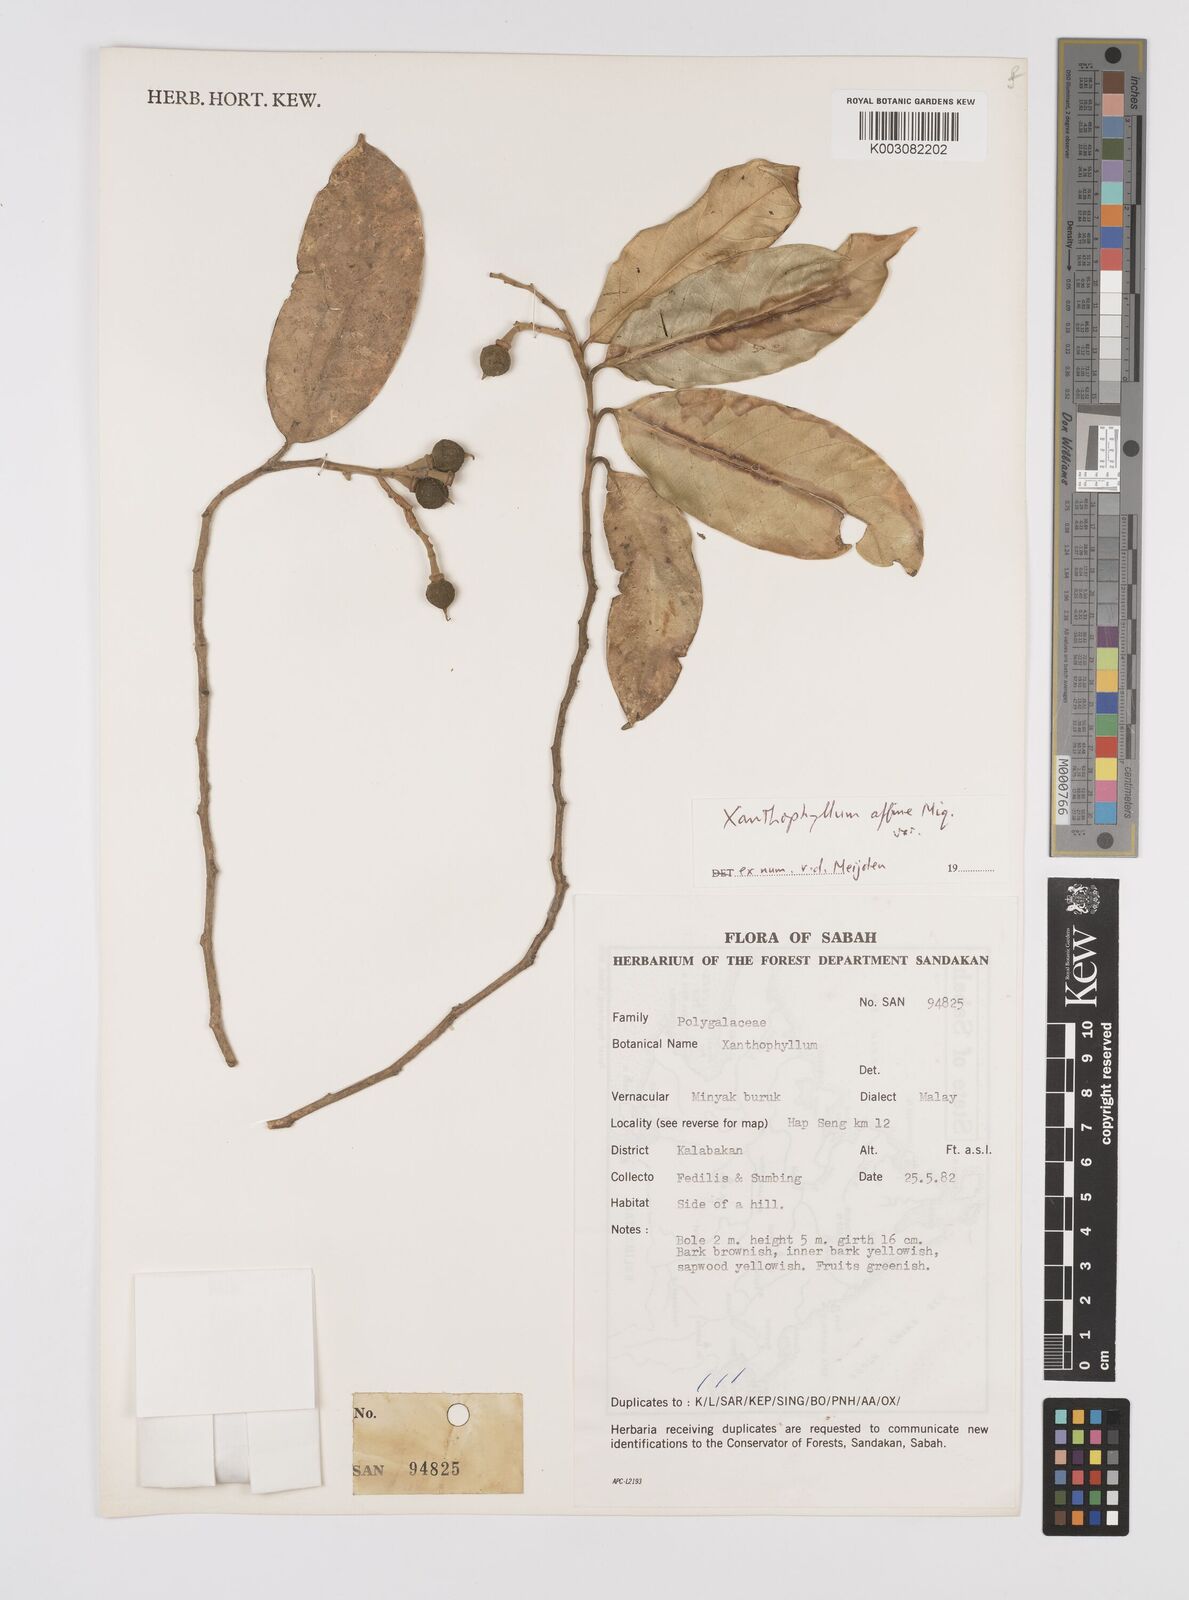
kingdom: Plantae
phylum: Tracheophyta
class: Magnoliopsida
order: Fabales
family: Polygalaceae
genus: Xanthophyllum
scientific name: Xanthophyllum flavescens
